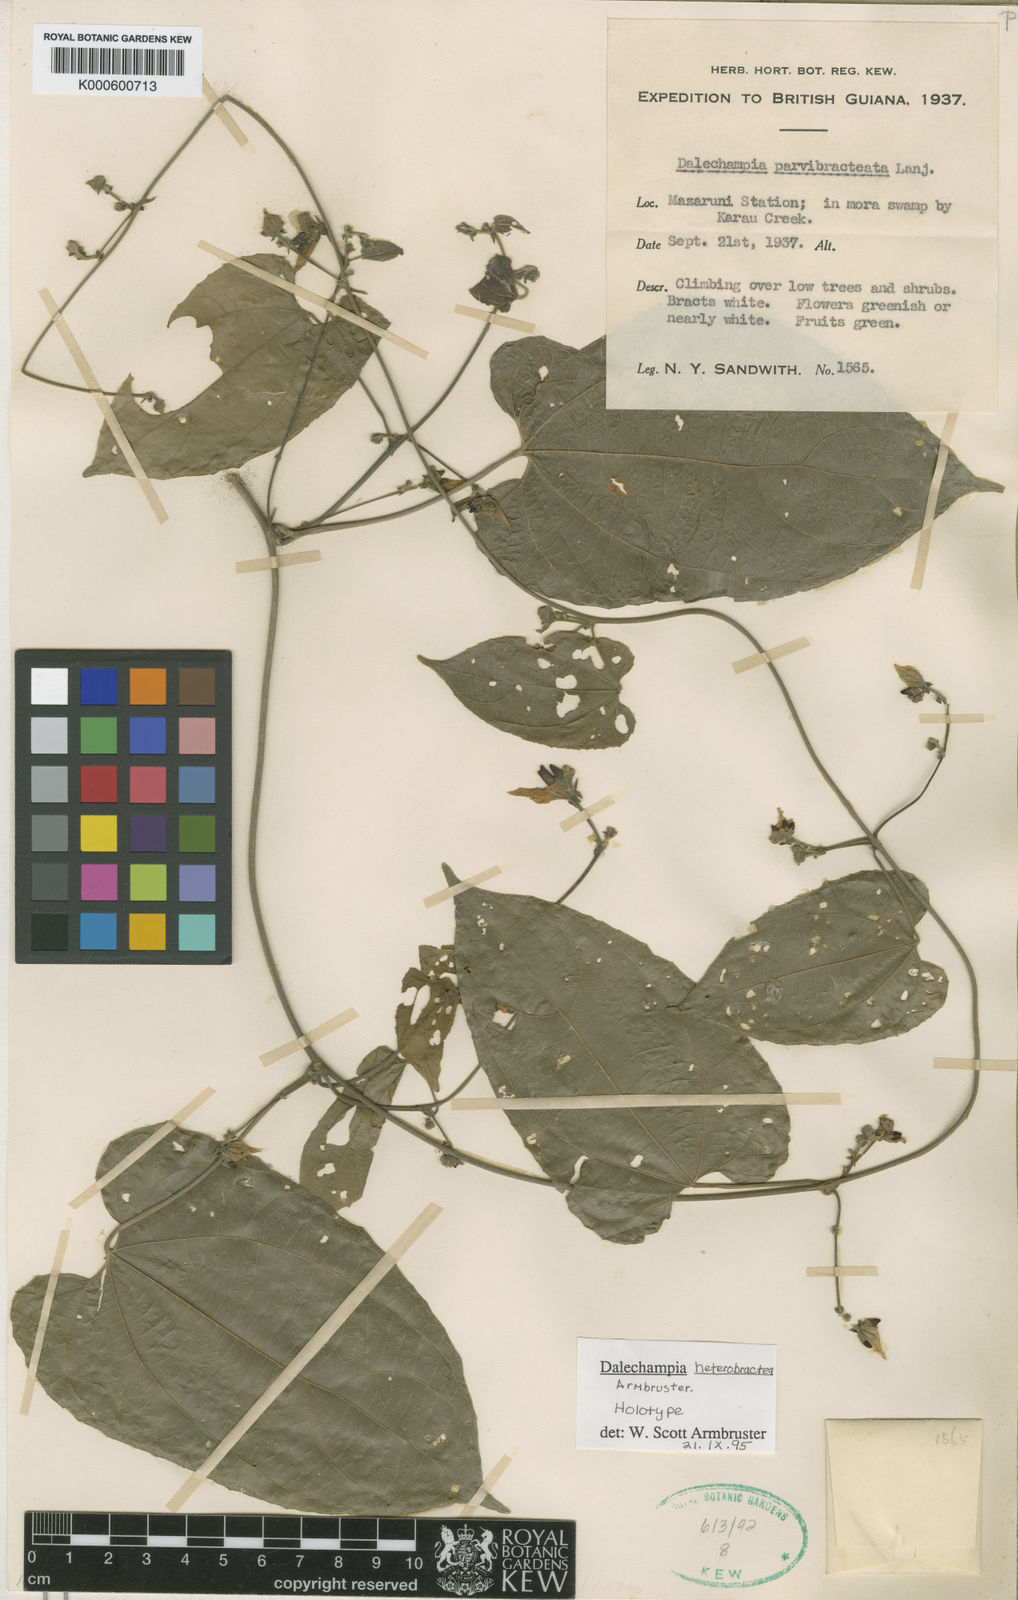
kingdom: Plantae
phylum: Tracheophyta
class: Magnoliopsida
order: Malpighiales
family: Euphorbiaceae
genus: Dalechampia
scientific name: Dalechampia heterobractea
